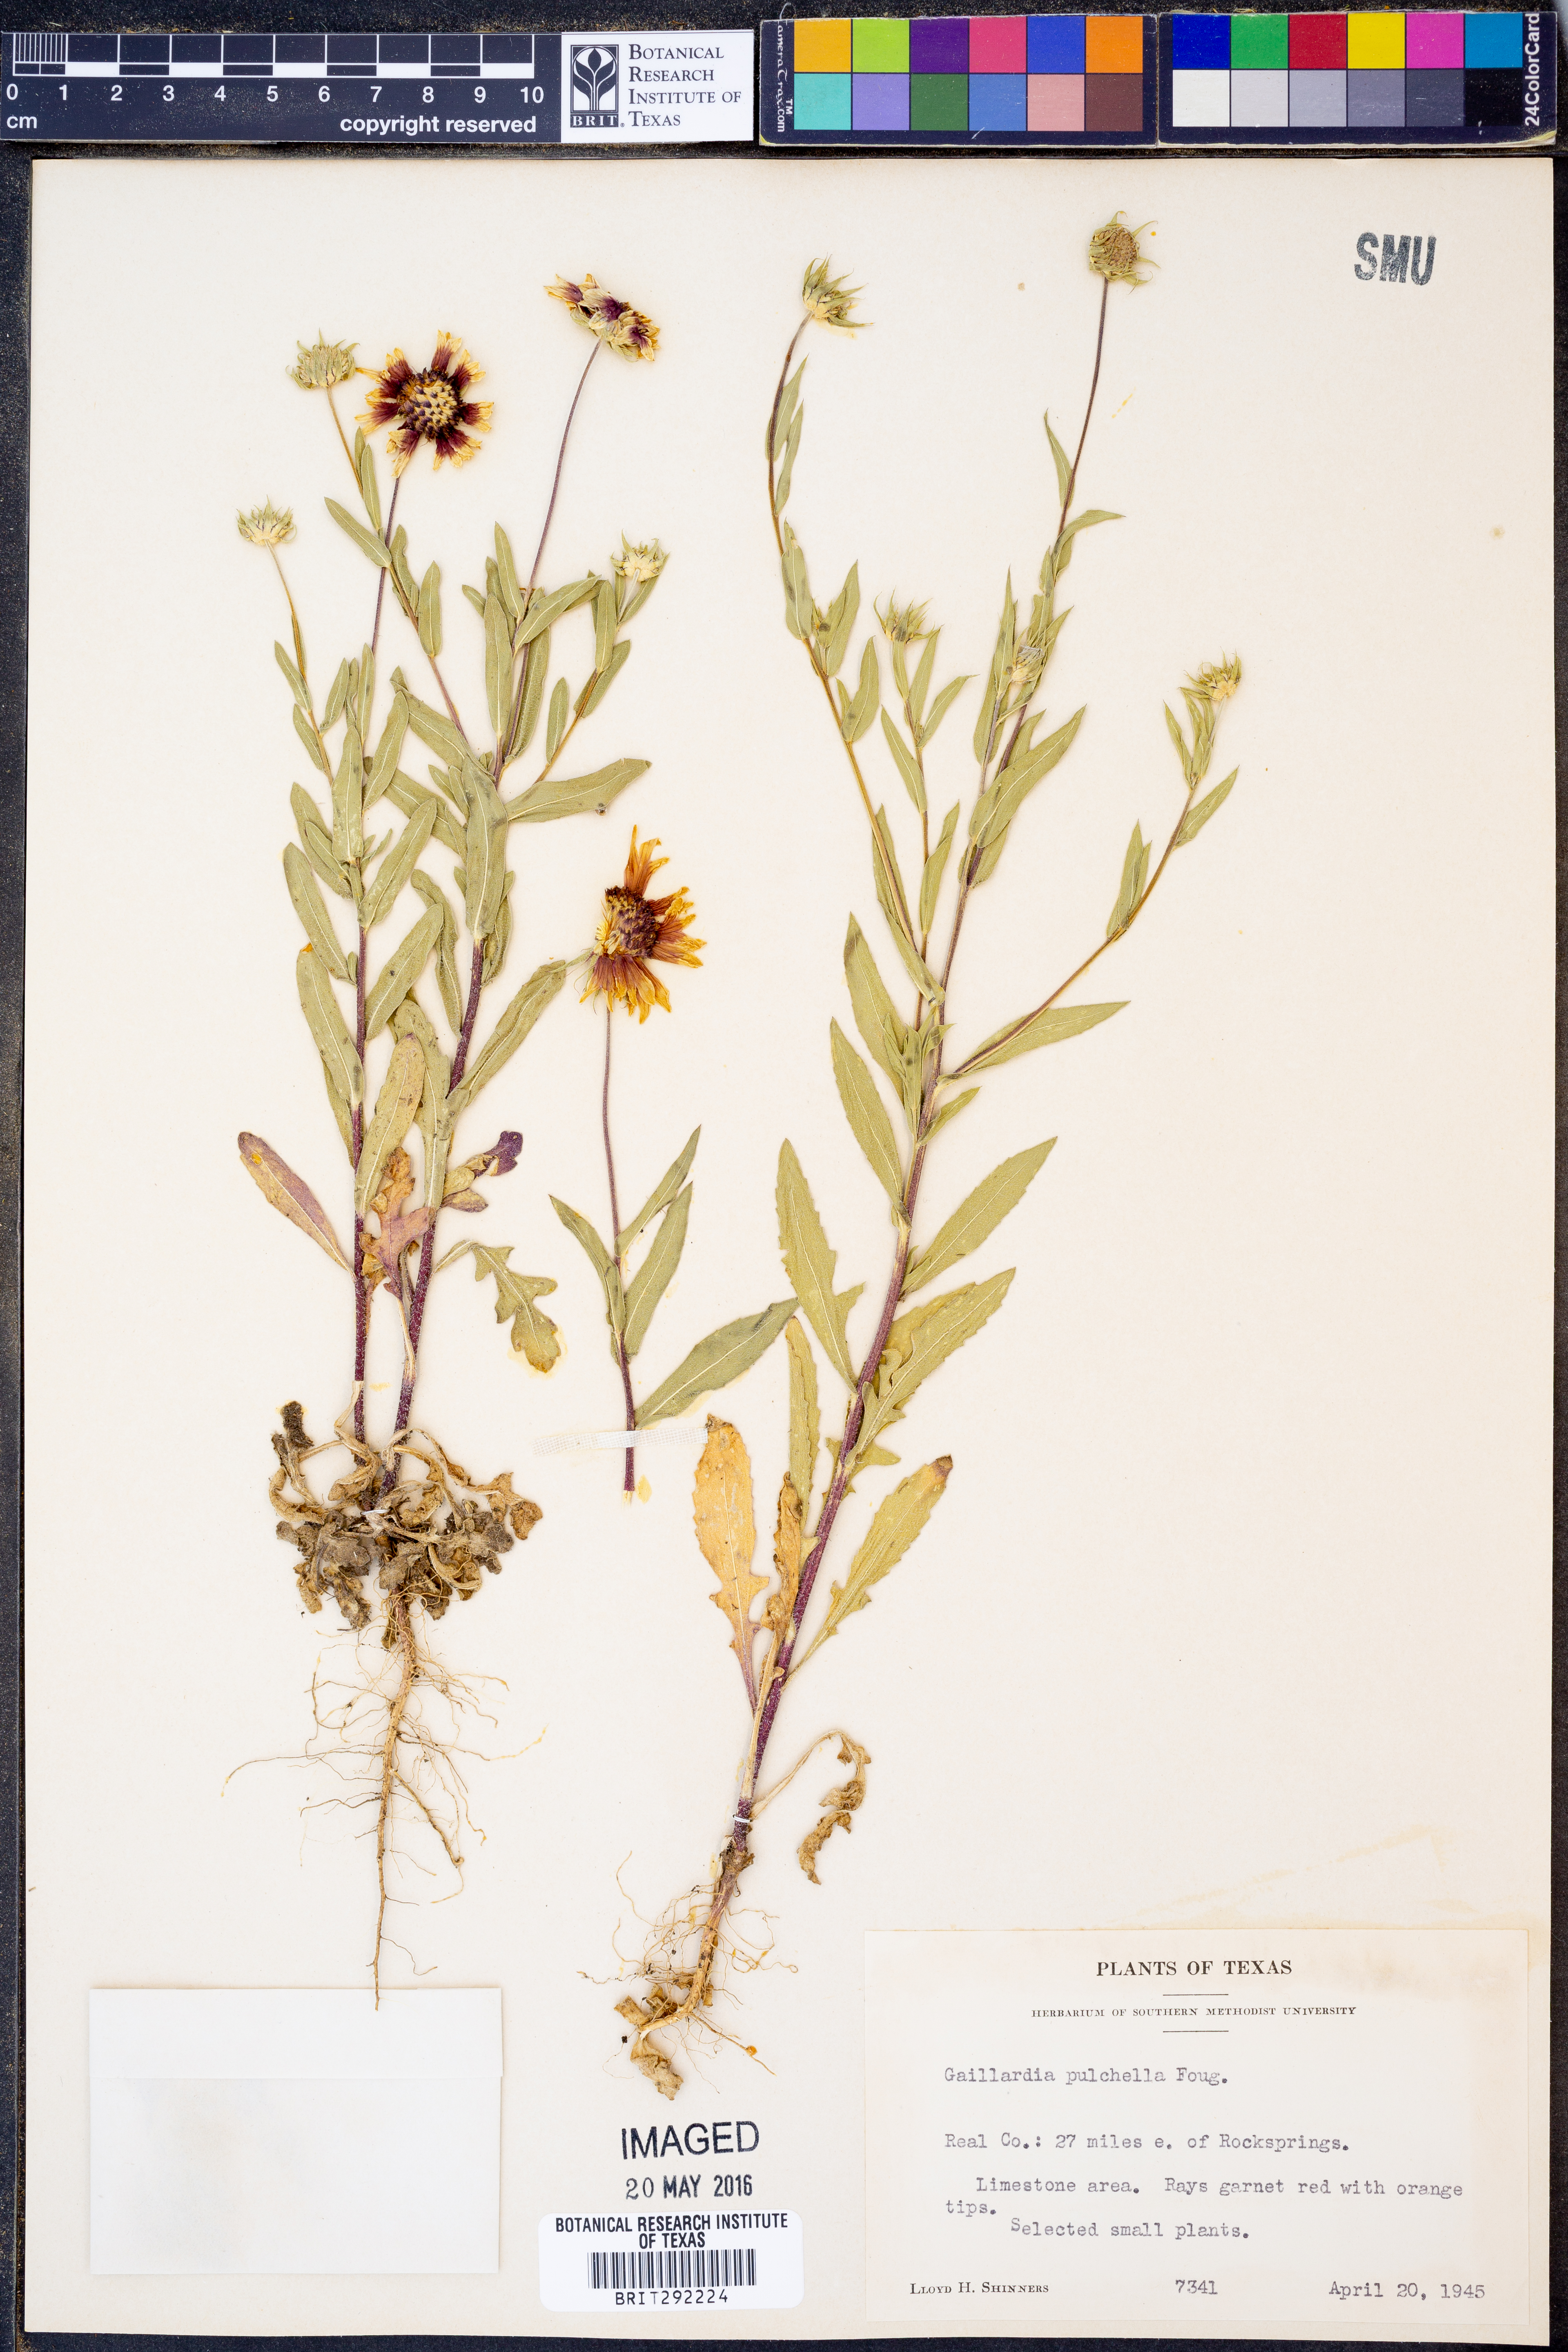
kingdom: Plantae
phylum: Tracheophyta
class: Magnoliopsida
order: Asterales
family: Asteraceae
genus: Gaillardia
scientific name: Gaillardia pulchella
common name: Firewheel
